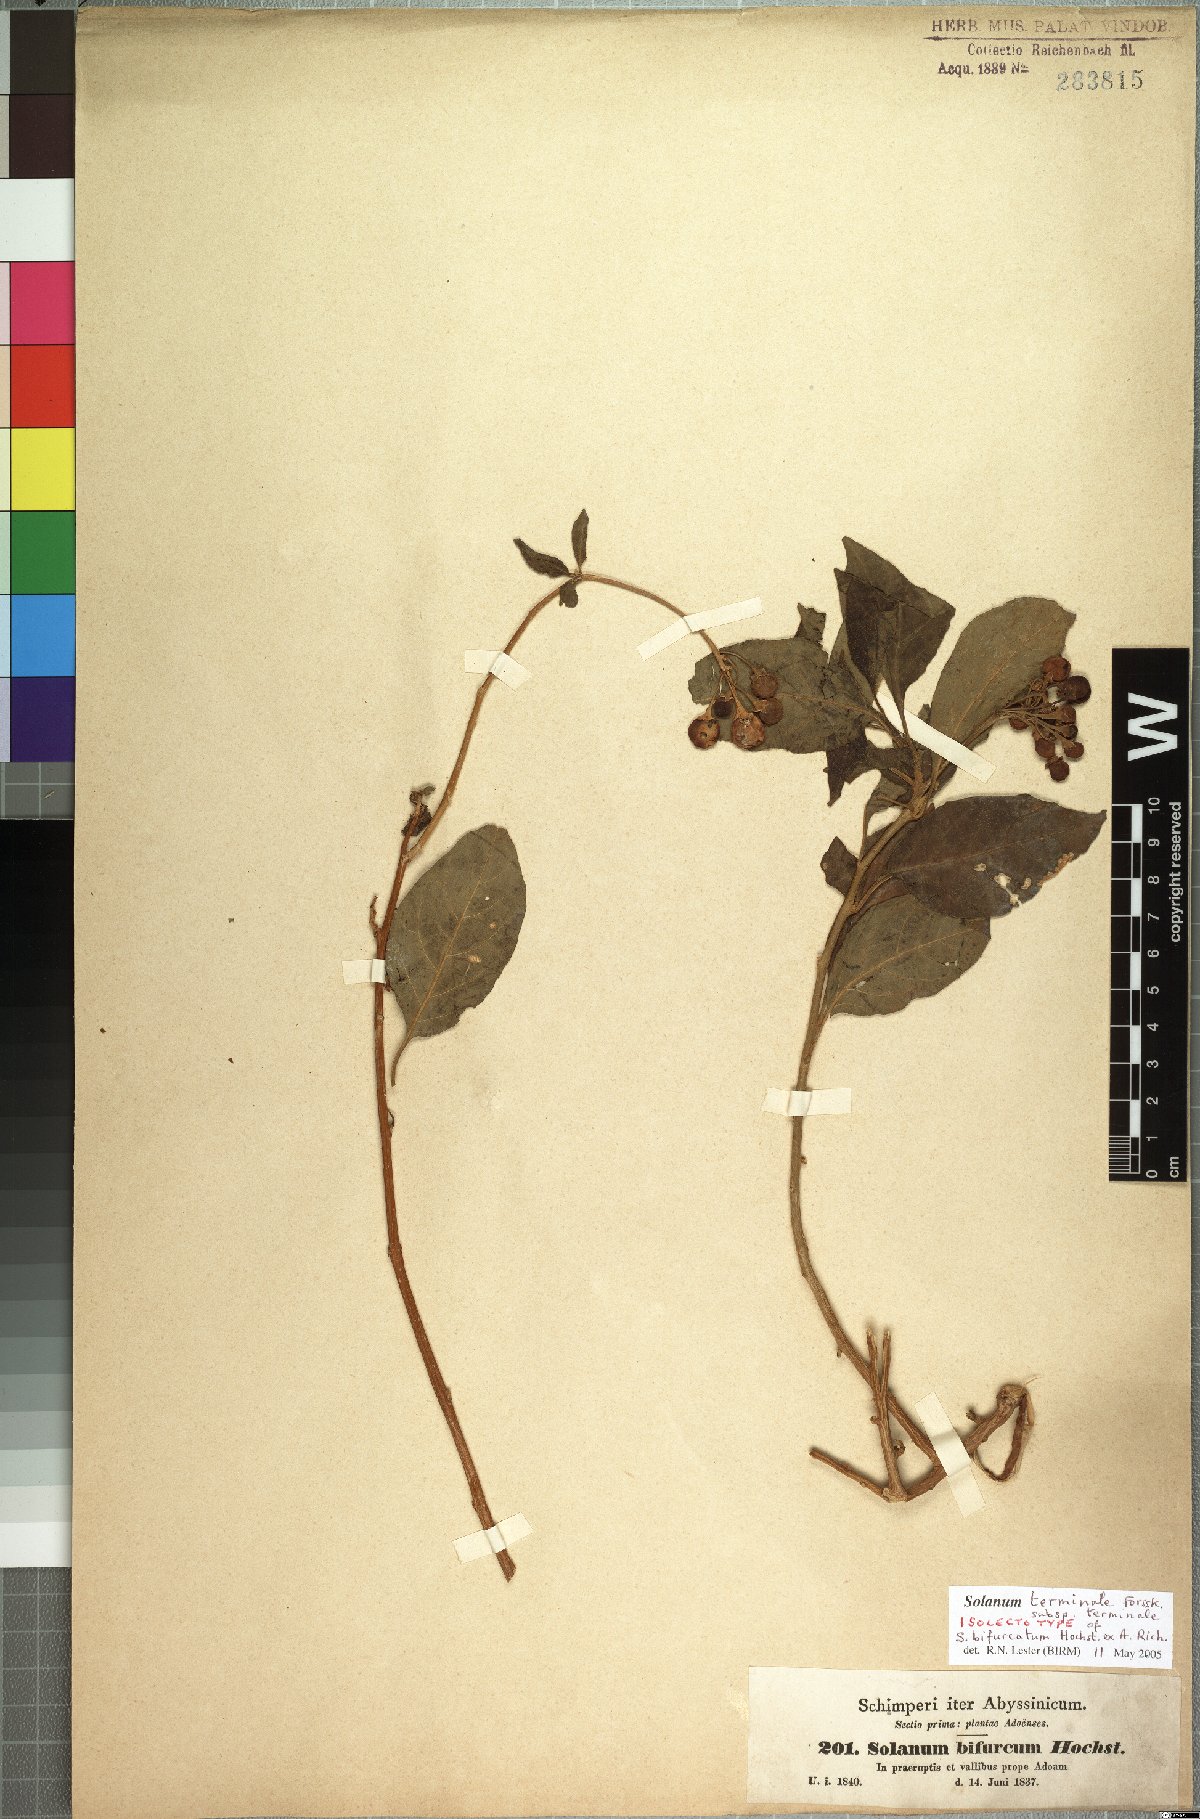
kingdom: Plantae
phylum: Tracheophyta
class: Magnoliopsida
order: Solanales
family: Solanaceae
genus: Solanum
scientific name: Solanum terminale
